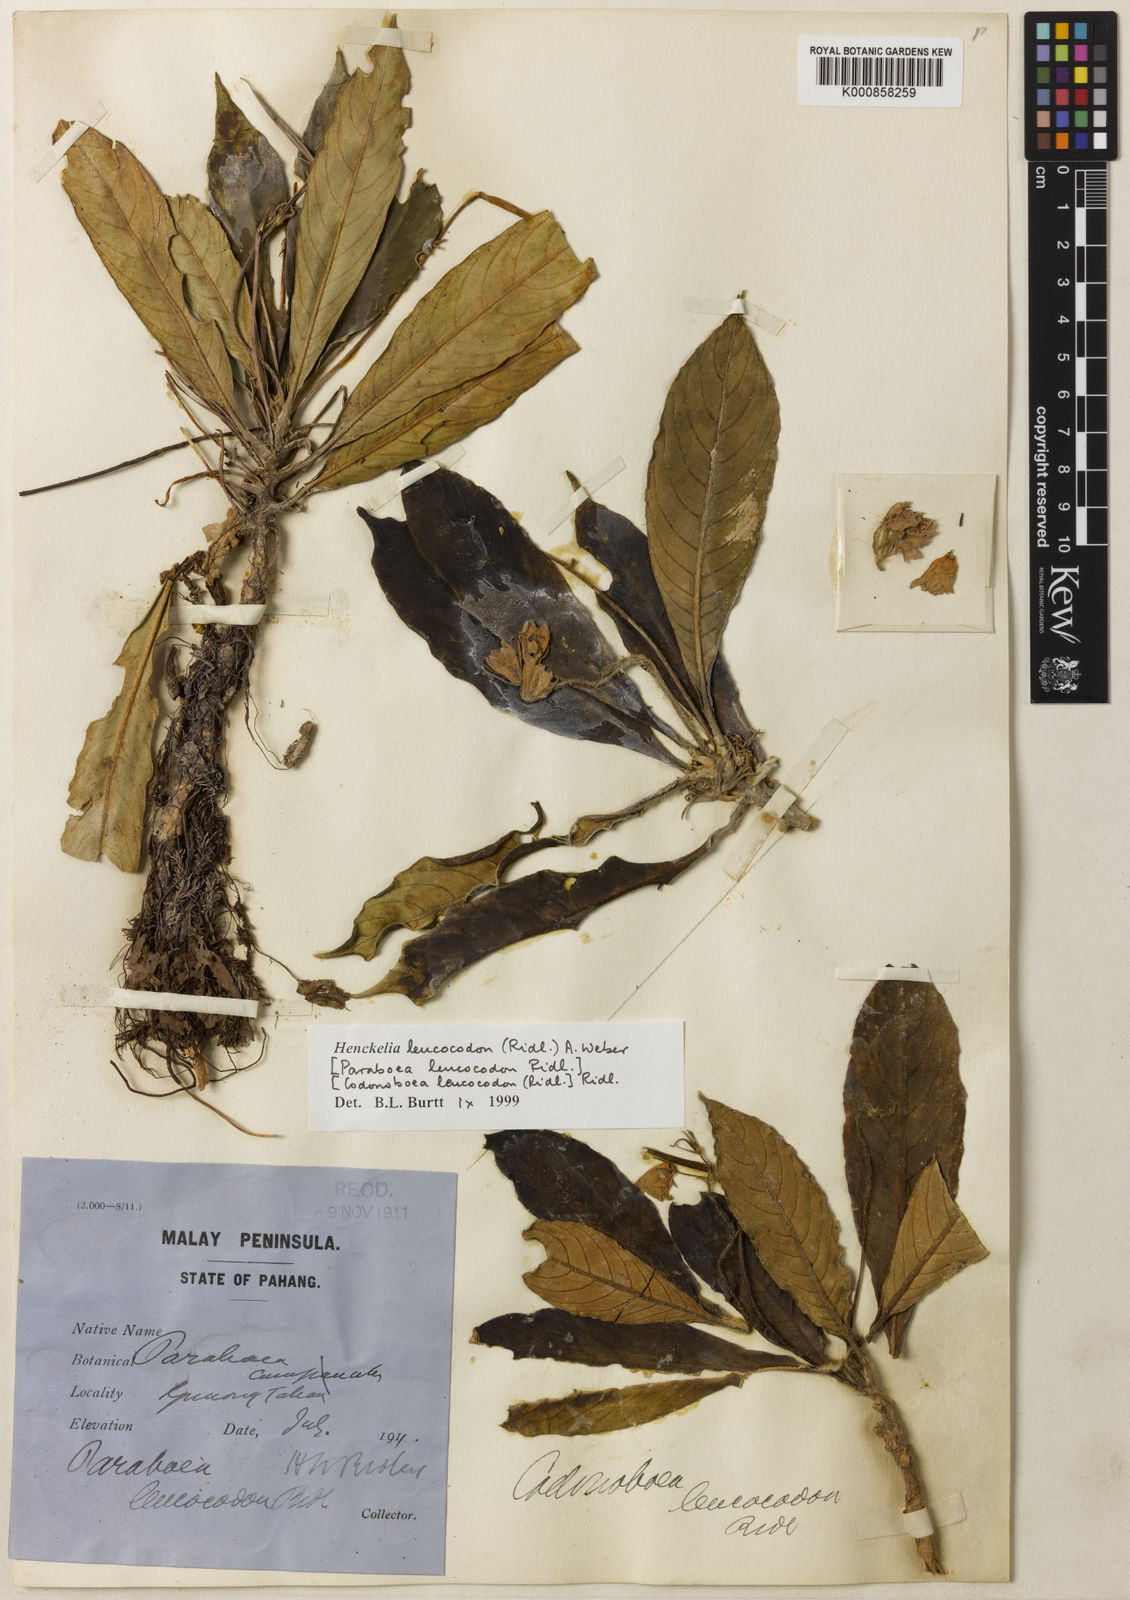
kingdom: Plantae
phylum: Tracheophyta
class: Magnoliopsida
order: Lamiales
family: Gesneriaceae
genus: Codonoboea
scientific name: Codonoboea leucocodon
